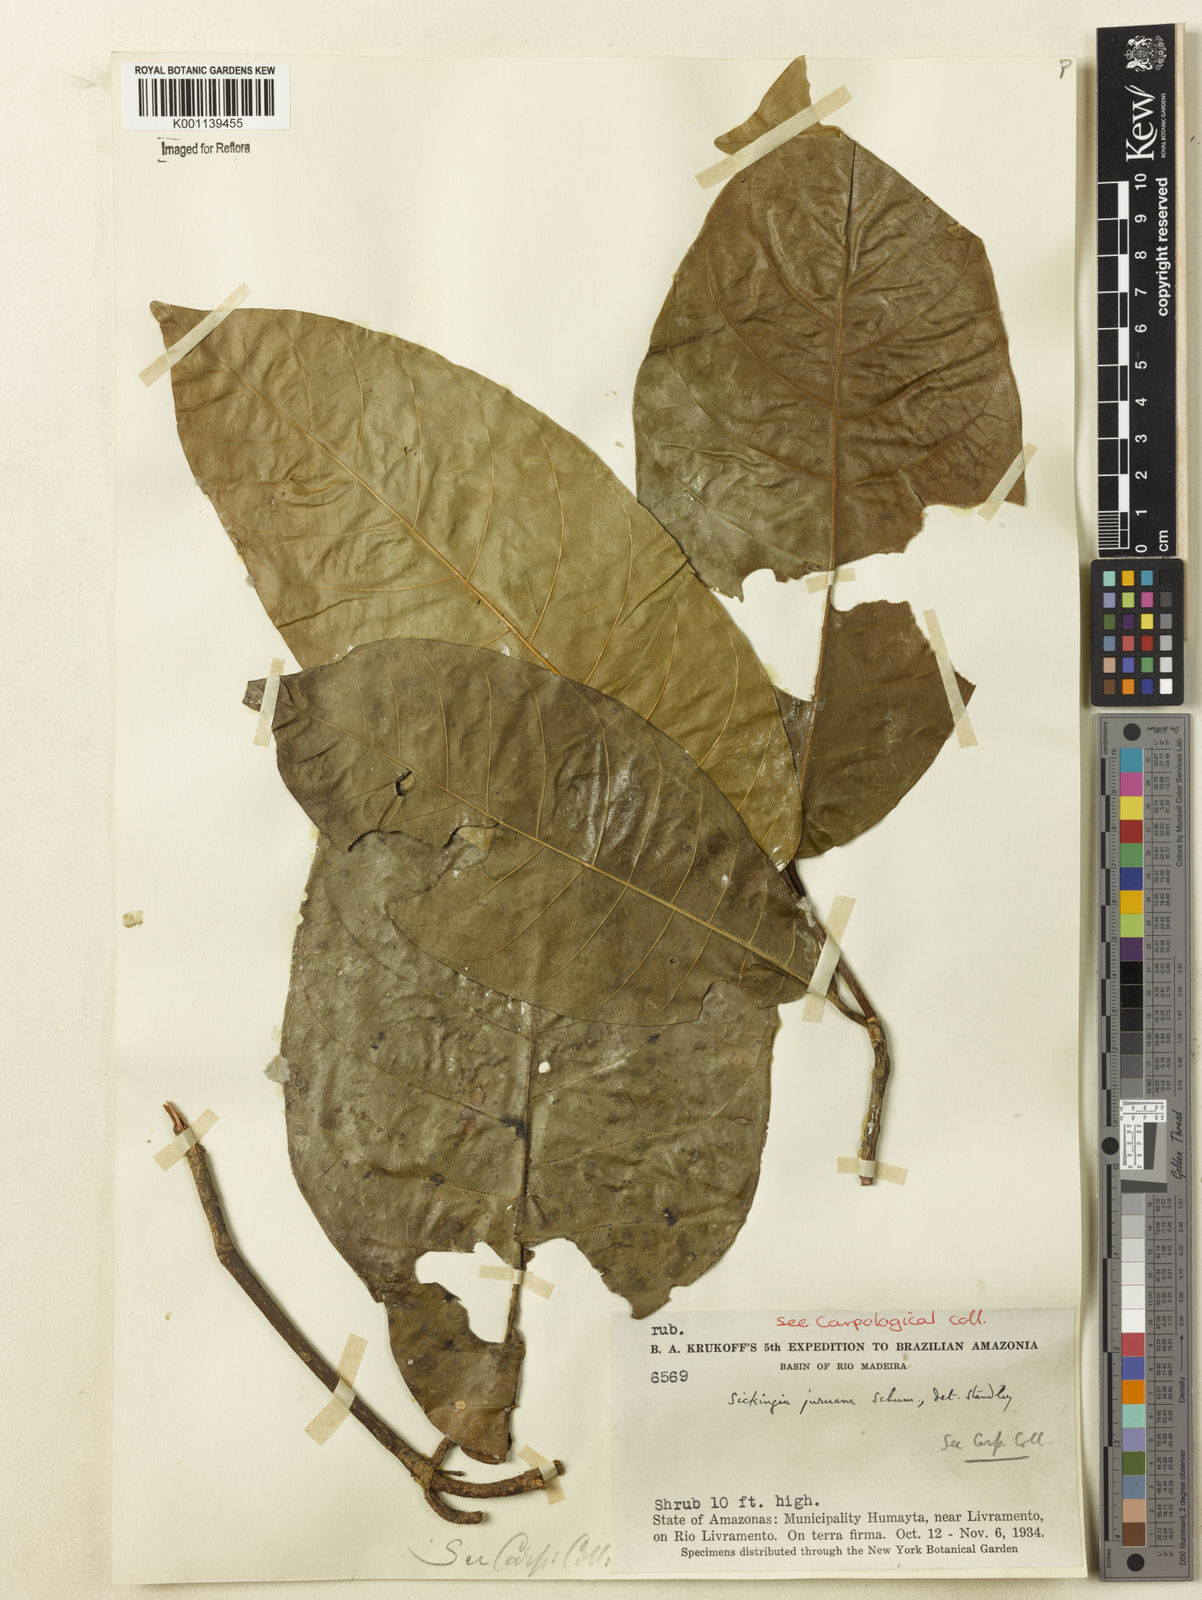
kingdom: Plantae
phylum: Tracheophyta
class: Magnoliopsida
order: Gentianales
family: Rubiaceae
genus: Simira
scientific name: Simira
